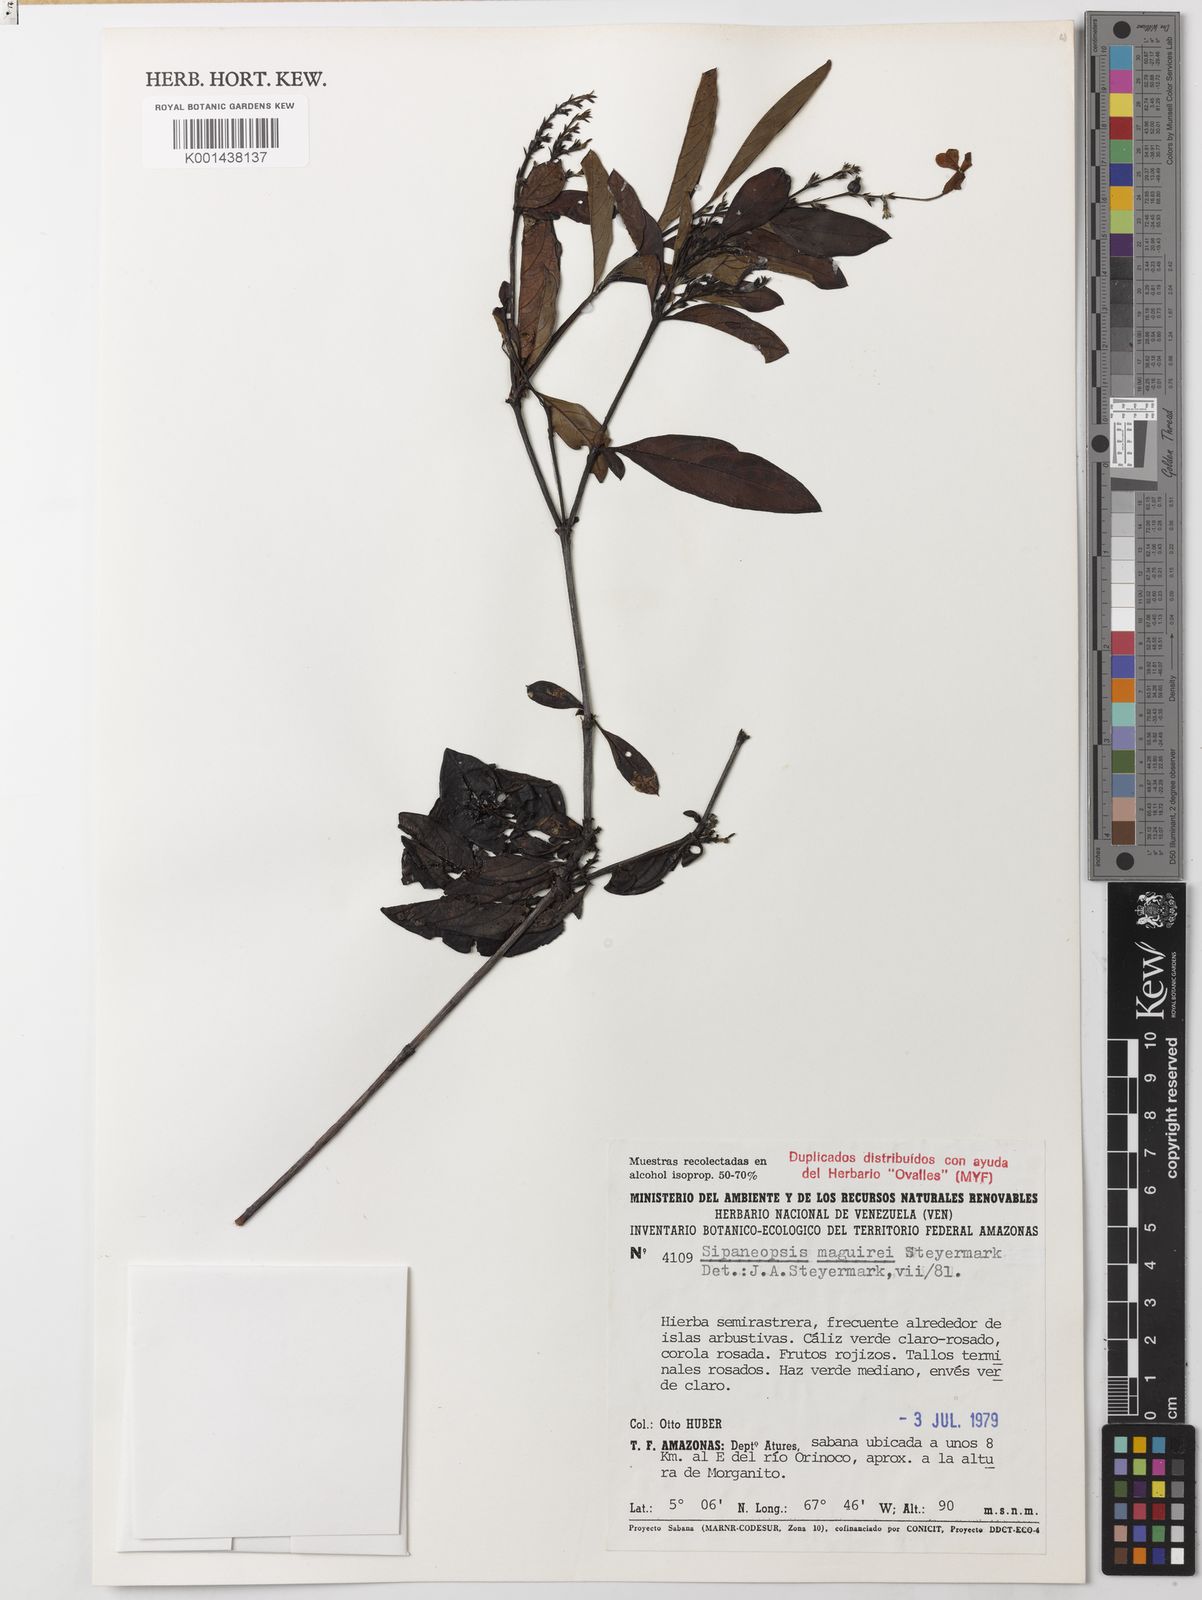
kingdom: Plantae
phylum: Tracheophyta
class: Magnoliopsida
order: Gentianales
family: Rubiaceae
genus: Sipaneopsis
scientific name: Sipaneopsis maguirei
